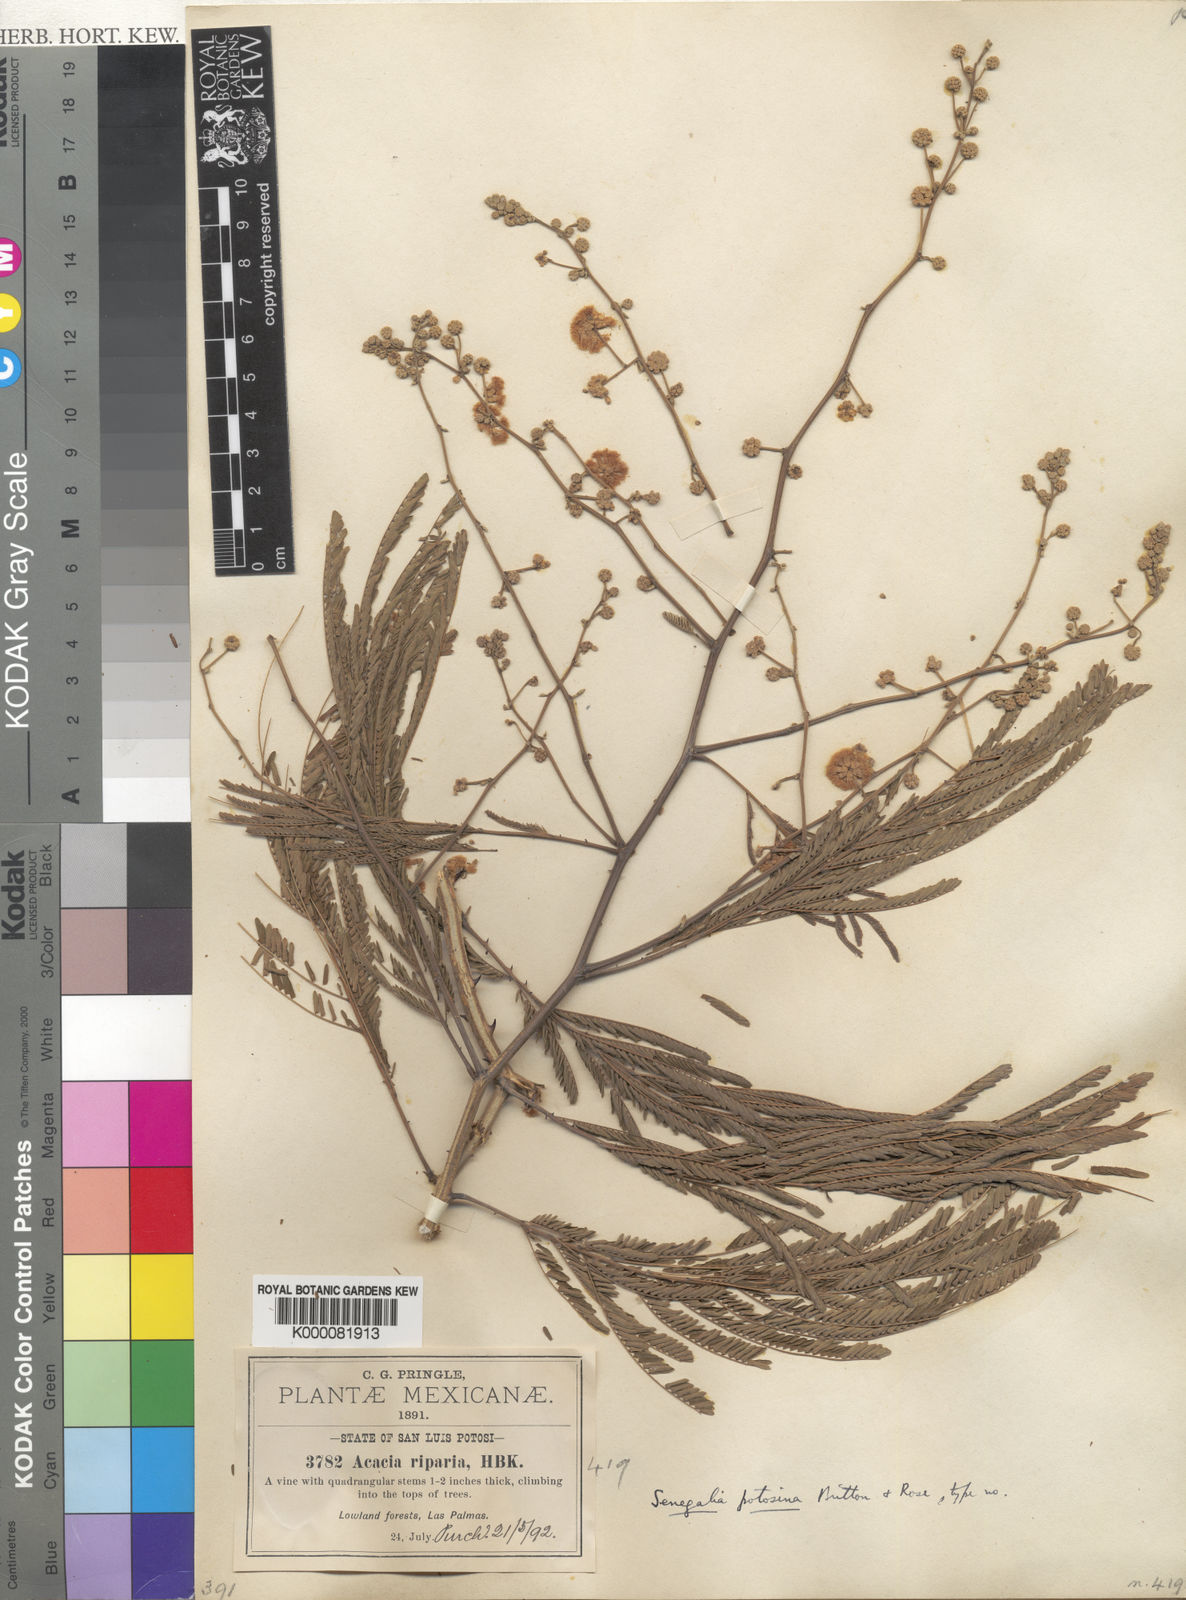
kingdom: Plantae
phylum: Tracheophyta
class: Magnoliopsida
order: Fabales
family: Fabaceae
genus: Senegalia
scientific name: Senegalia riparia
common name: Catch-and-keep
